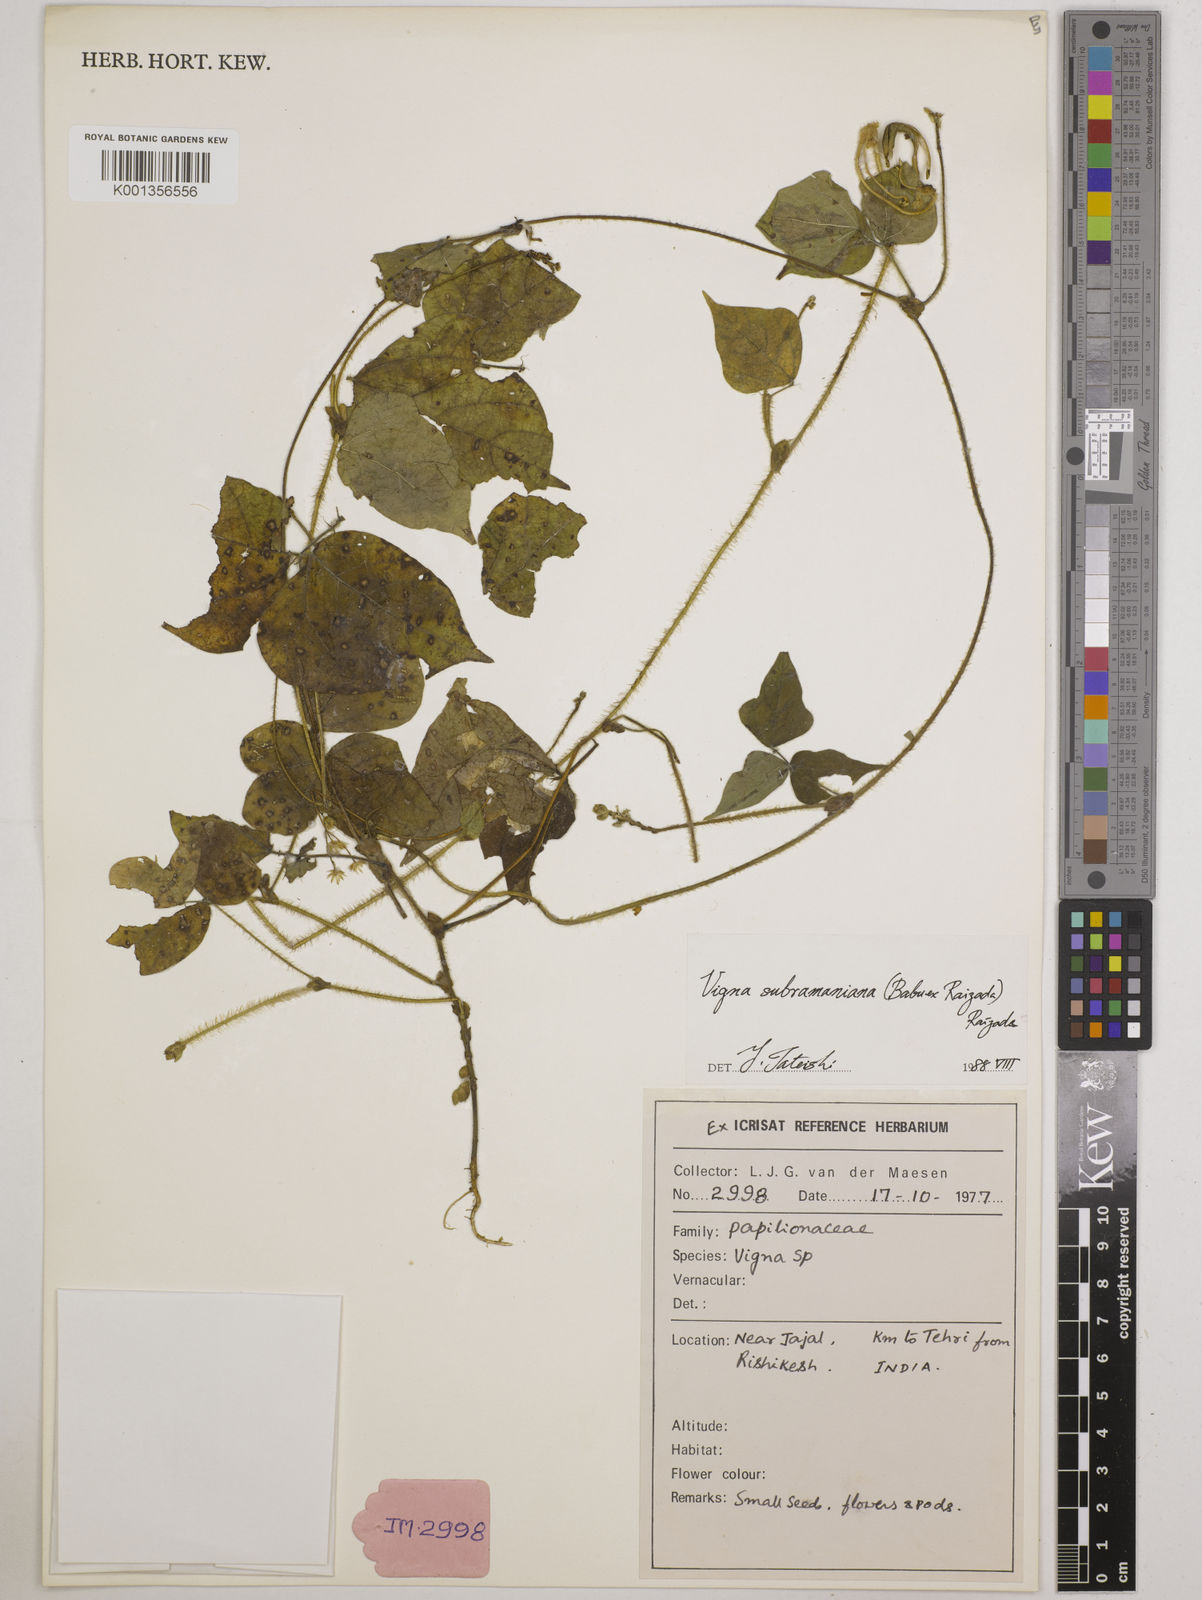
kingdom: Plantae
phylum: Tracheophyta
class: Magnoliopsida
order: Fabales
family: Fabaceae
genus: Vigna
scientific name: Vigna subramaniana
